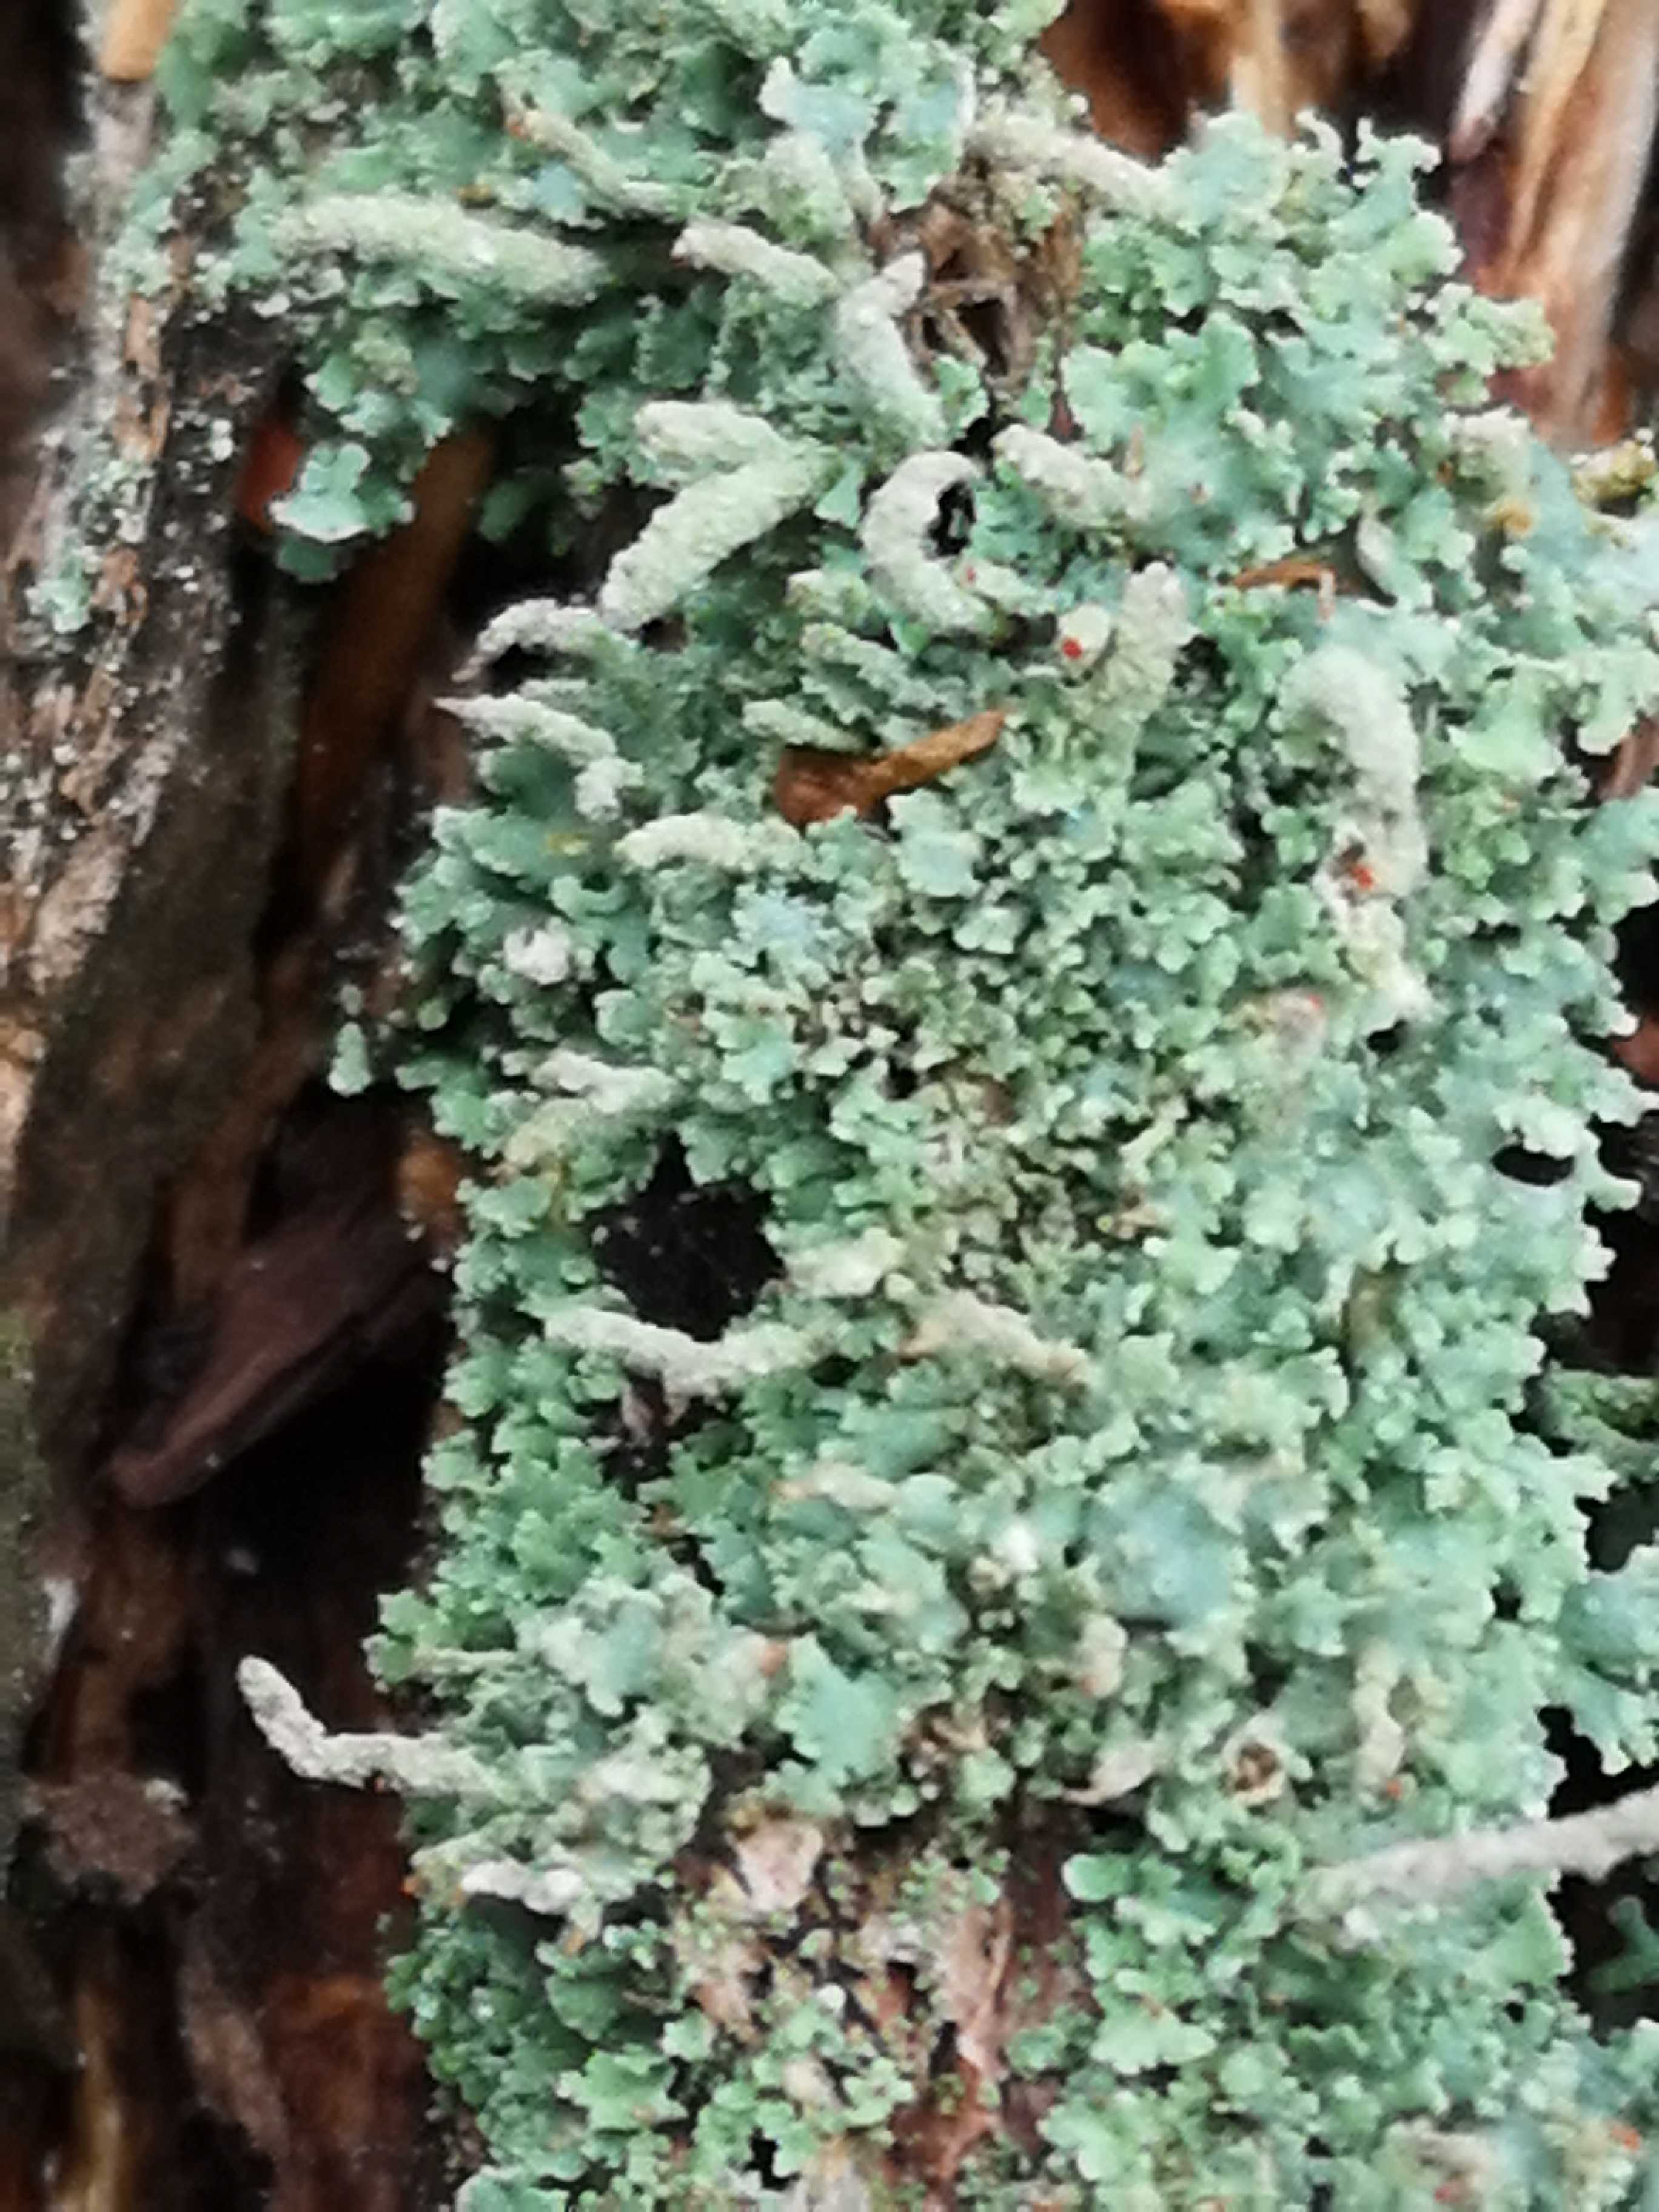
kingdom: Fungi
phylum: Ascomycota
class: Lecanoromycetes
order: Lecanorales
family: Cladoniaceae
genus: Cladonia
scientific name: Cladonia polydactyla
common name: vifte-bægerlav
